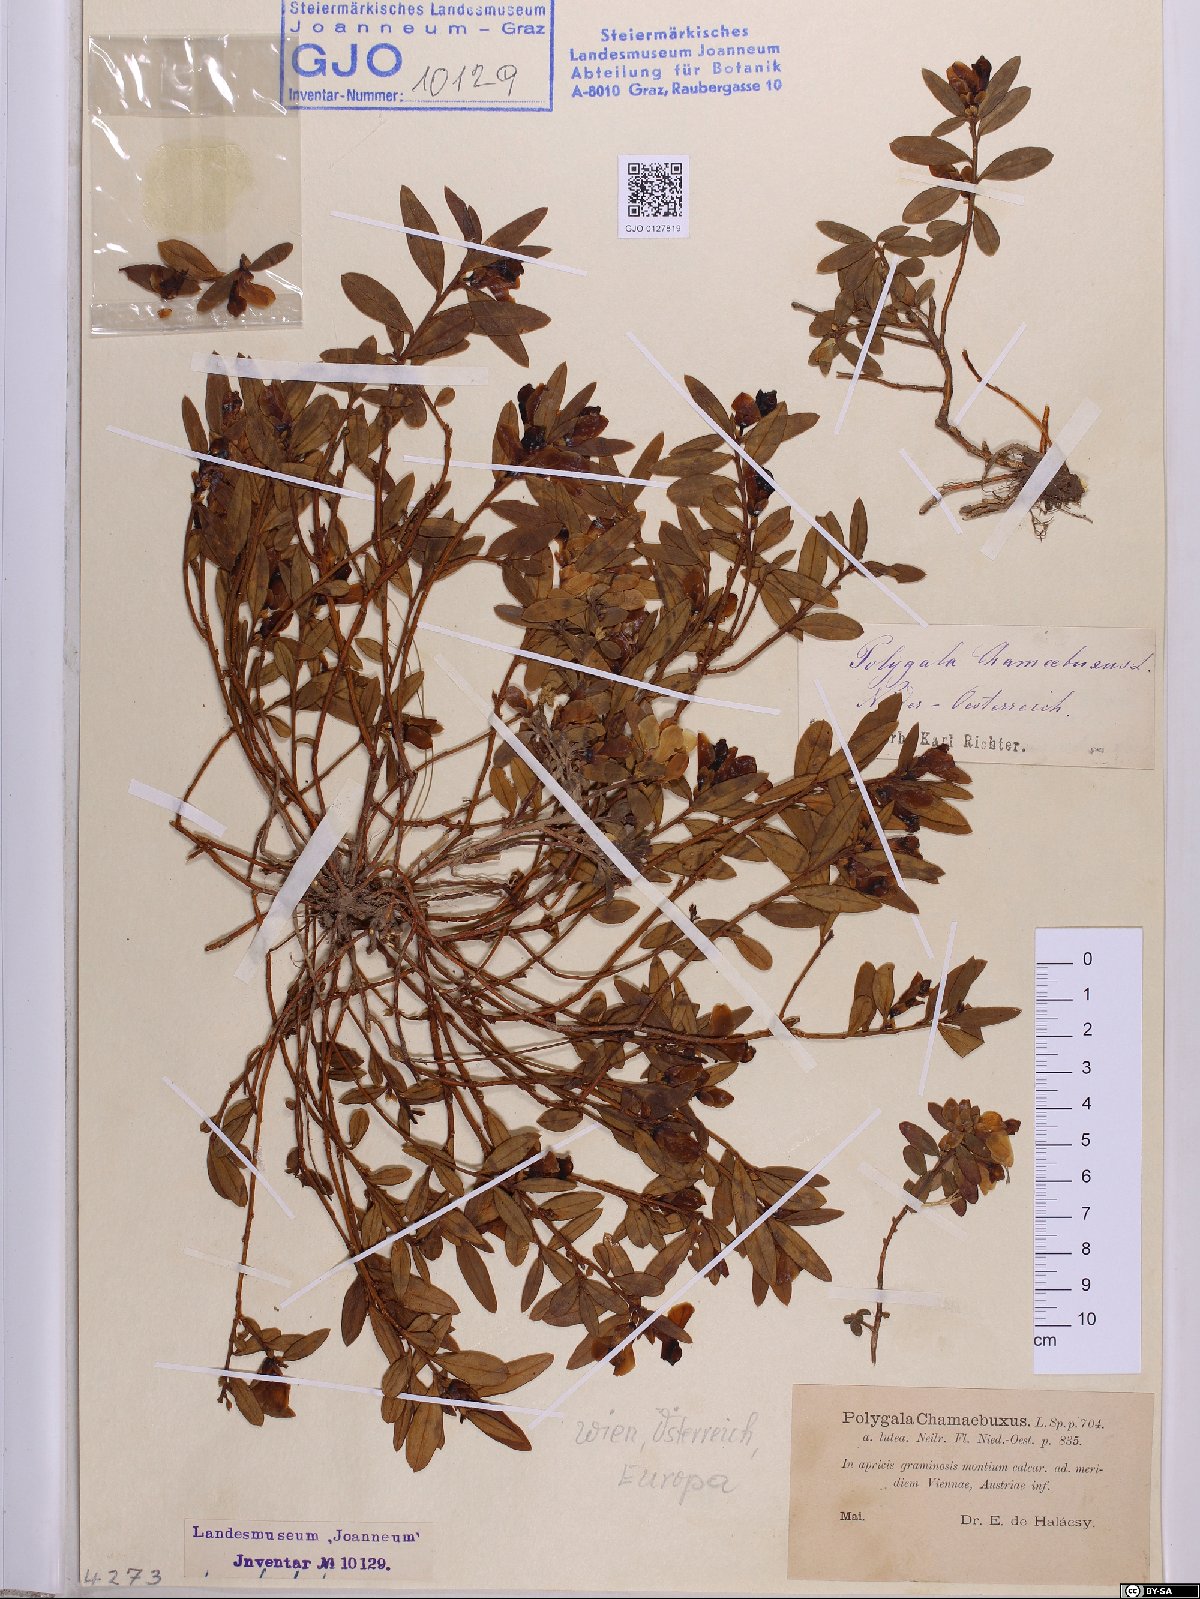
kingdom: Plantae
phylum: Tracheophyta
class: Magnoliopsida
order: Fabales
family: Polygalaceae
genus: Polygaloides
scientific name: Polygaloides chamaebuxus
